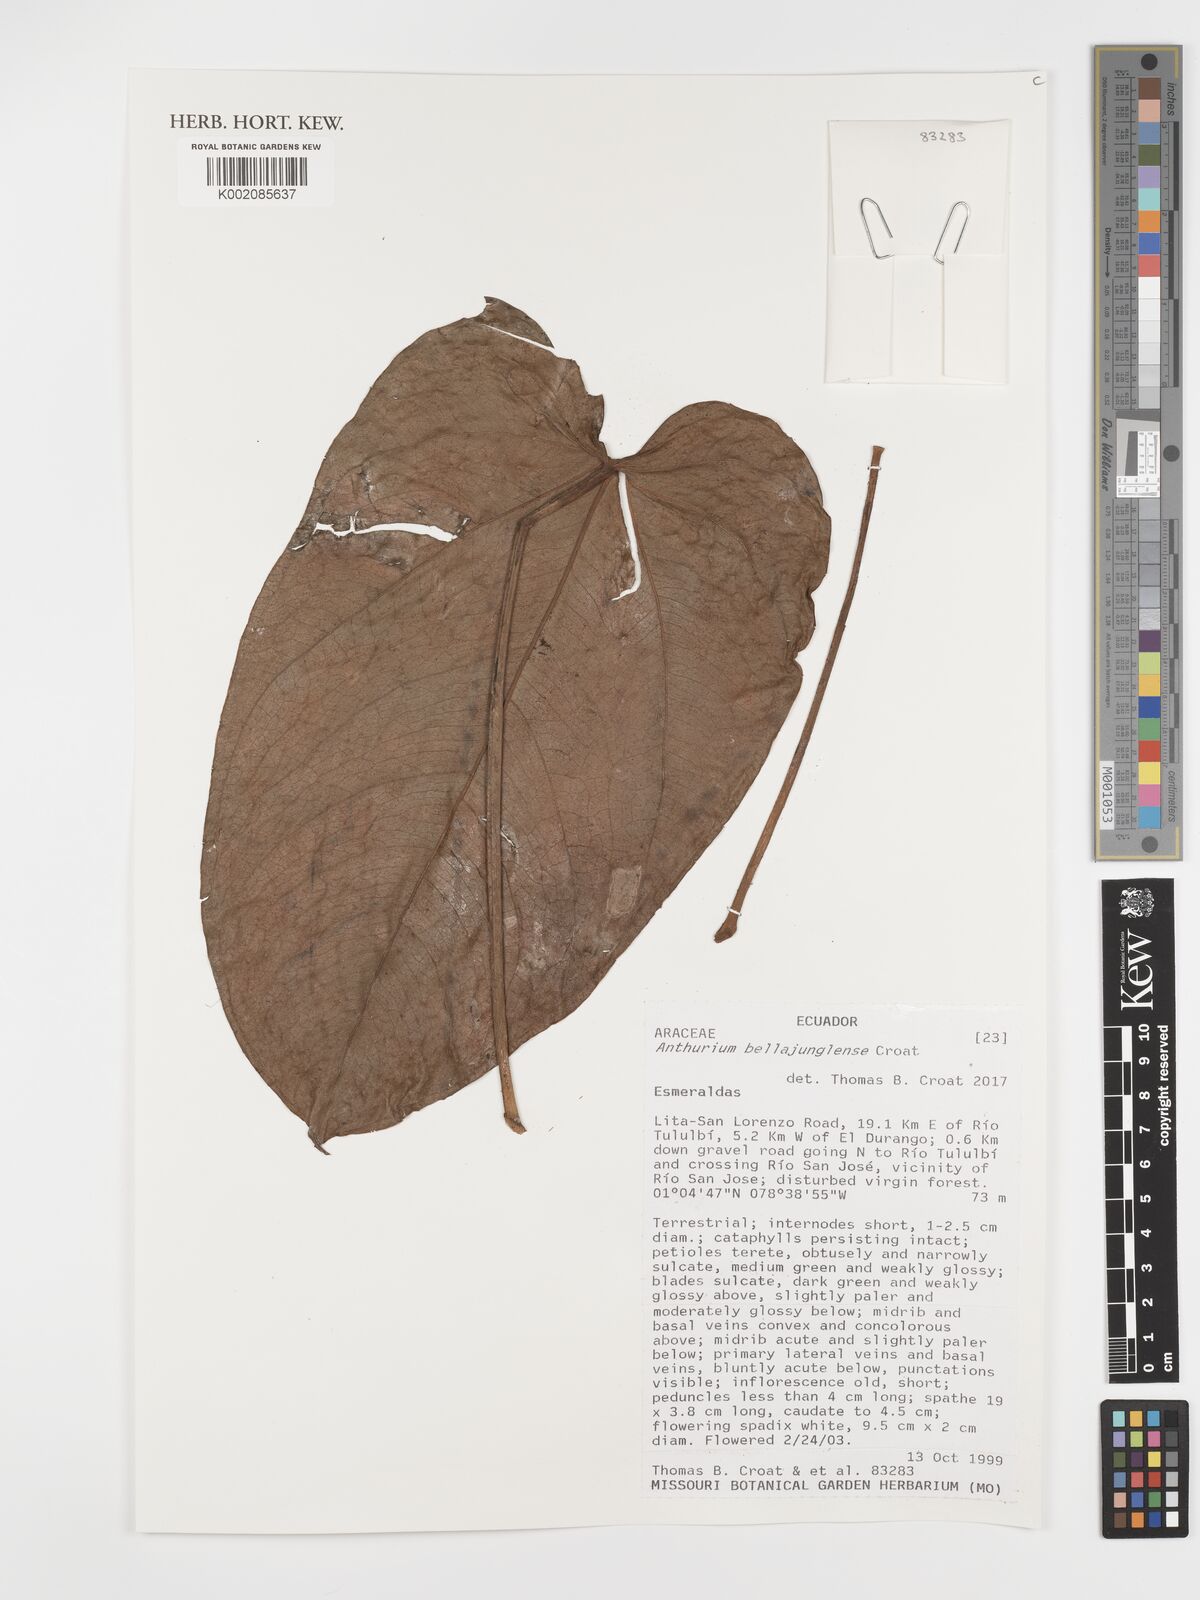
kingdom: Plantae
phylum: Tracheophyta
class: Liliopsida
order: Alismatales
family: Araceae
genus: Anthurium
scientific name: Anthurium
